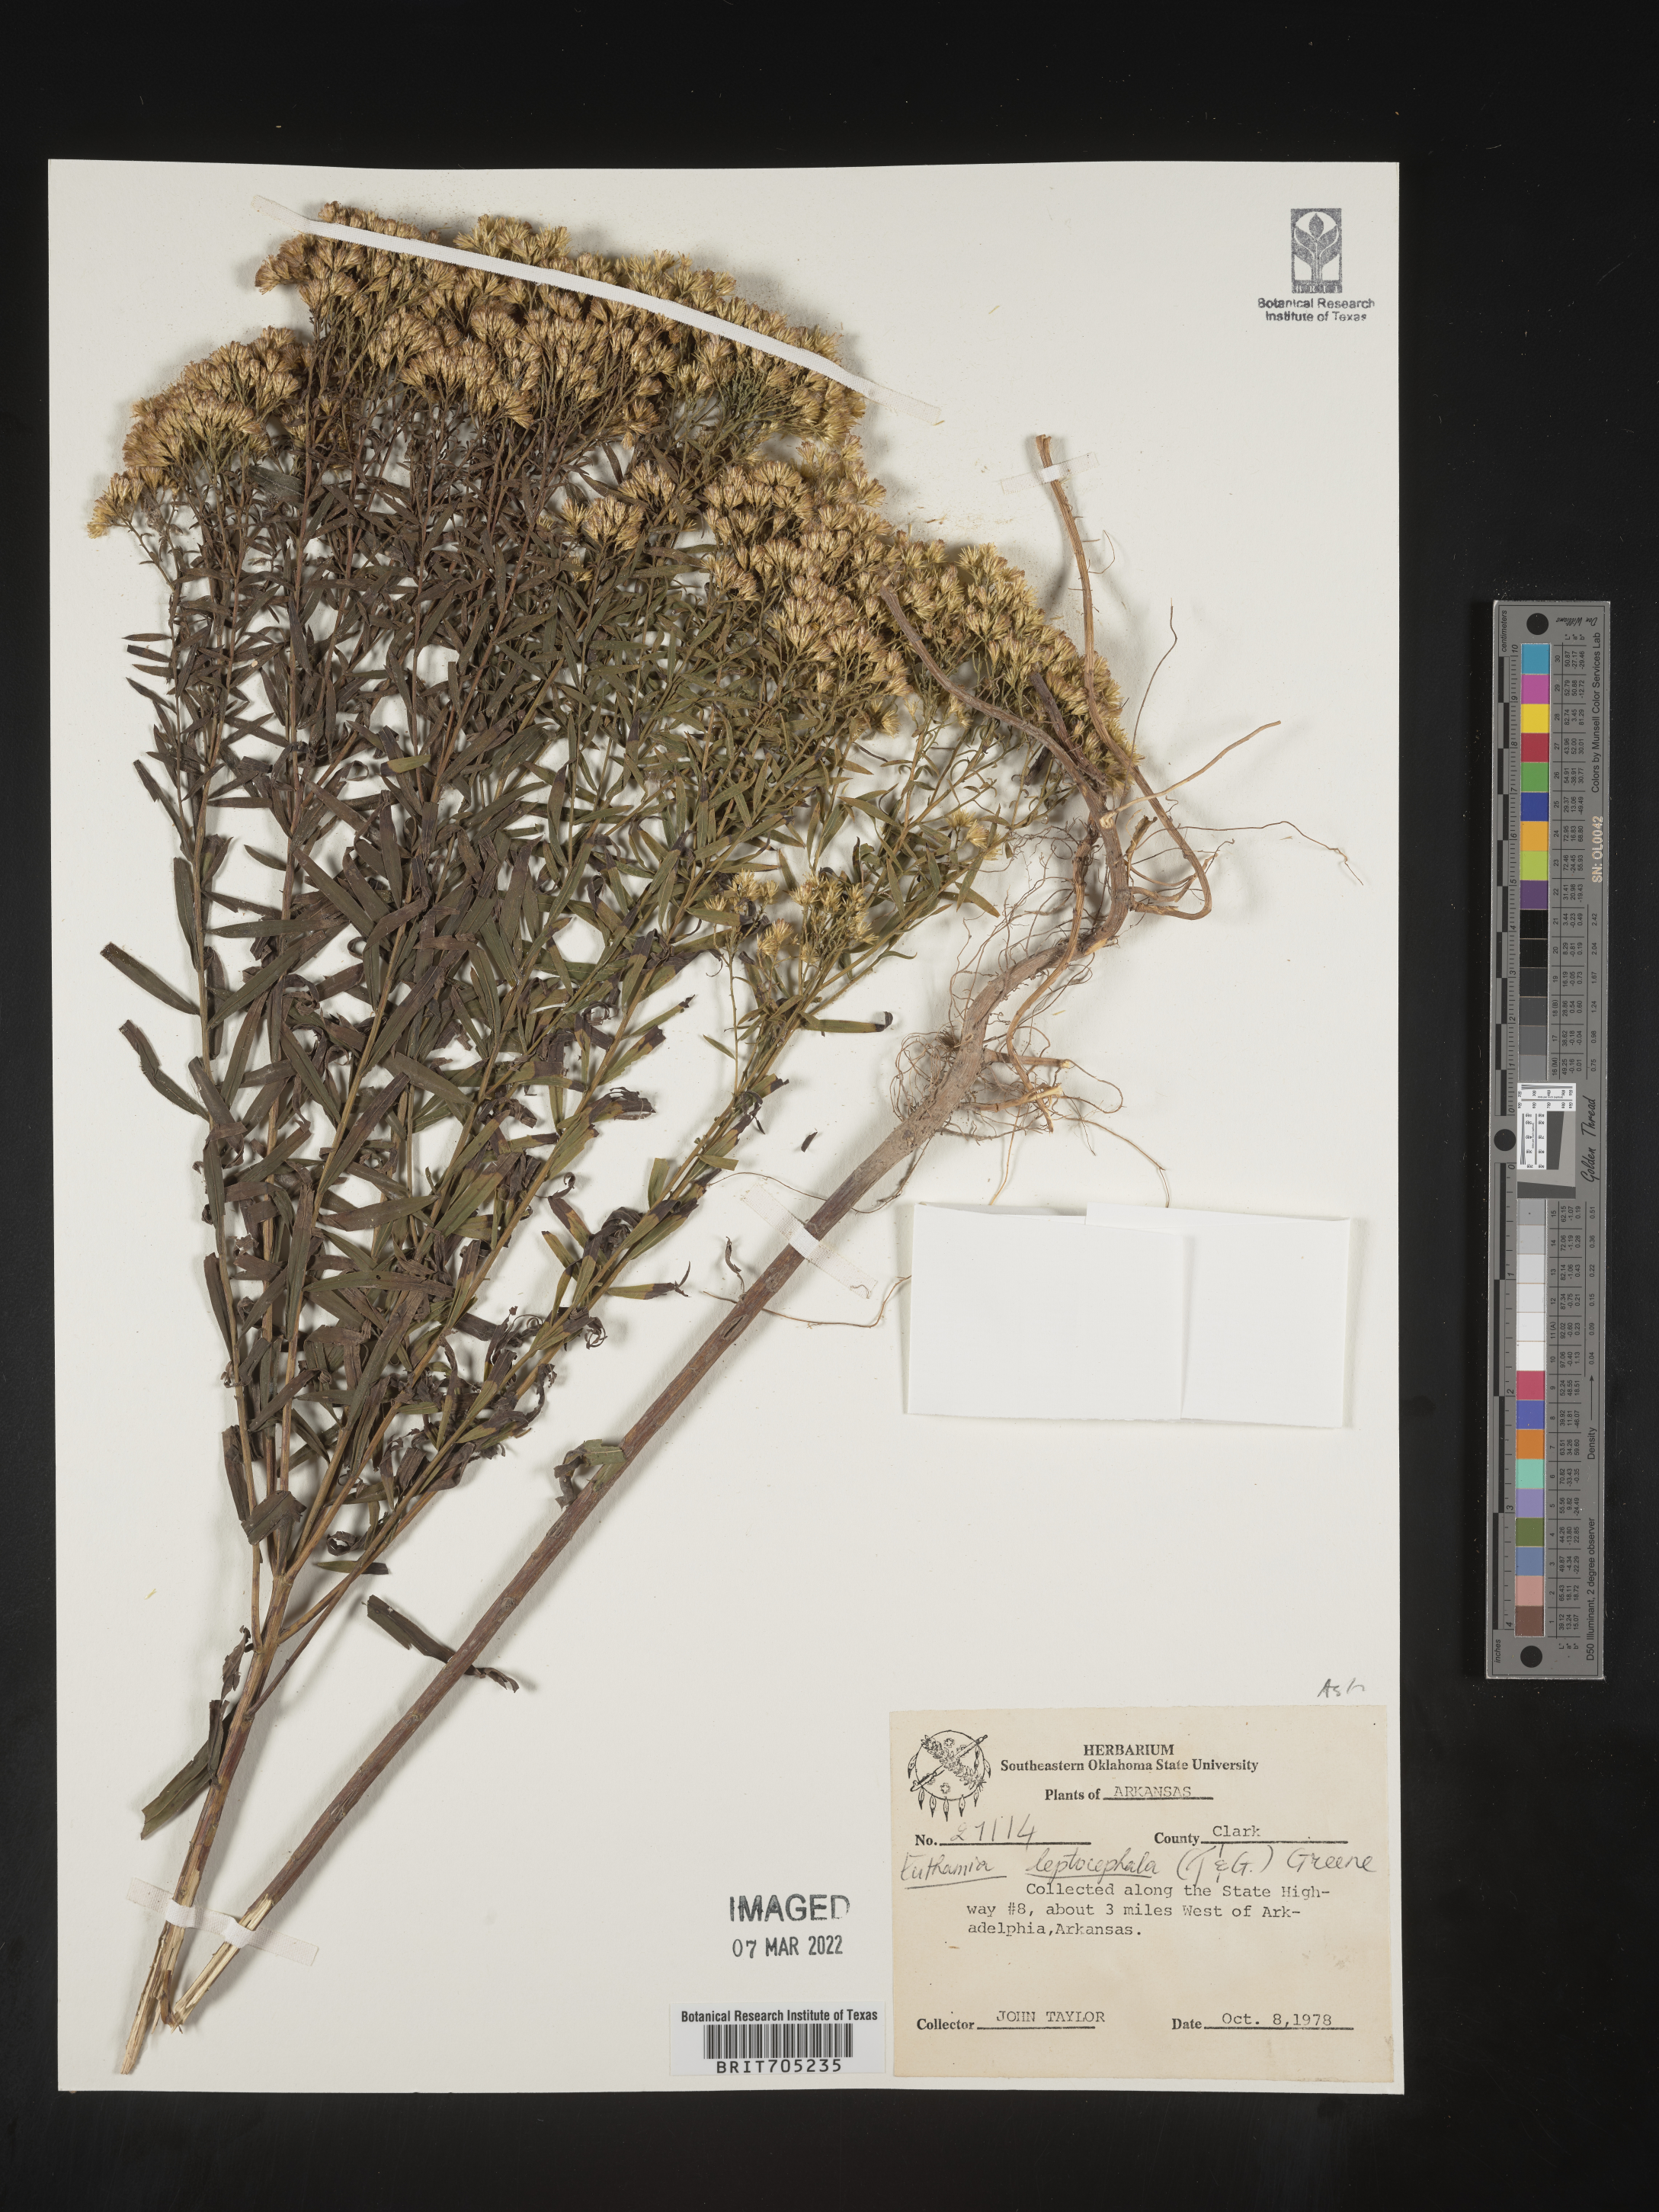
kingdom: Plantae
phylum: Tracheophyta
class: Magnoliopsida
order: Asterales
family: Asteraceae
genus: Euthamia
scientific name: Euthamia leptocephala
